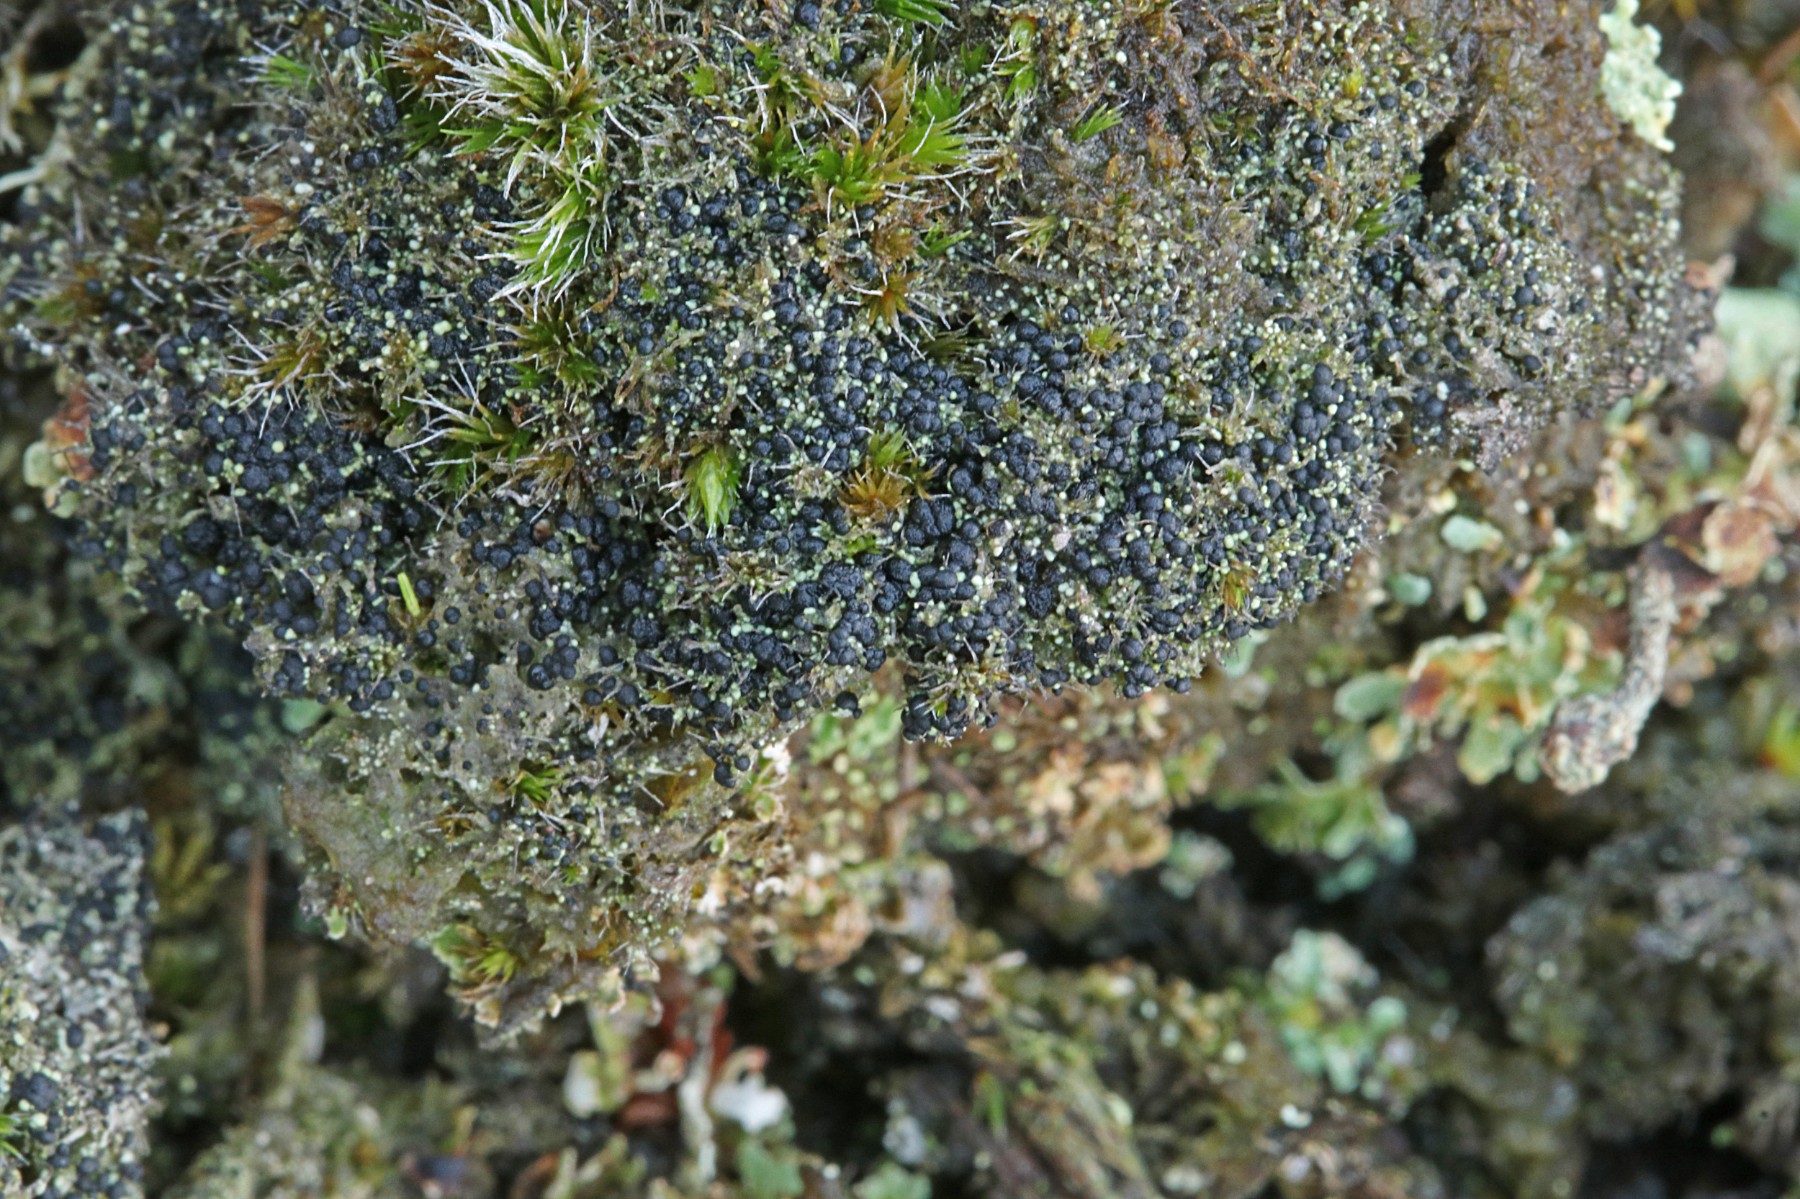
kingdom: Fungi
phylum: Ascomycota
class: Lecanoromycetes
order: Lecanorales
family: Byssolomataceae
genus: Micarea
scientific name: Micarea lignaria
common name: tørve-knaplav
